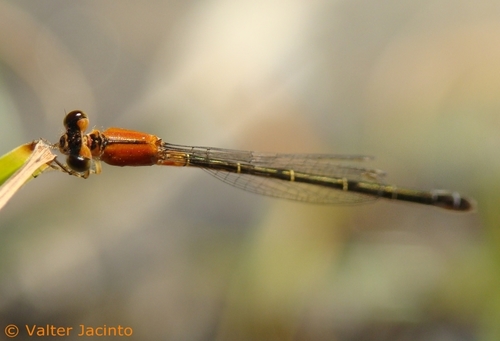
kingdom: Animalia
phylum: Arthropoda
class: Insecta
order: Odonata
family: Coenagrionidae
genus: Ischnura
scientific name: Ischnura pumilio
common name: Scarce blue-tailed damselfly
